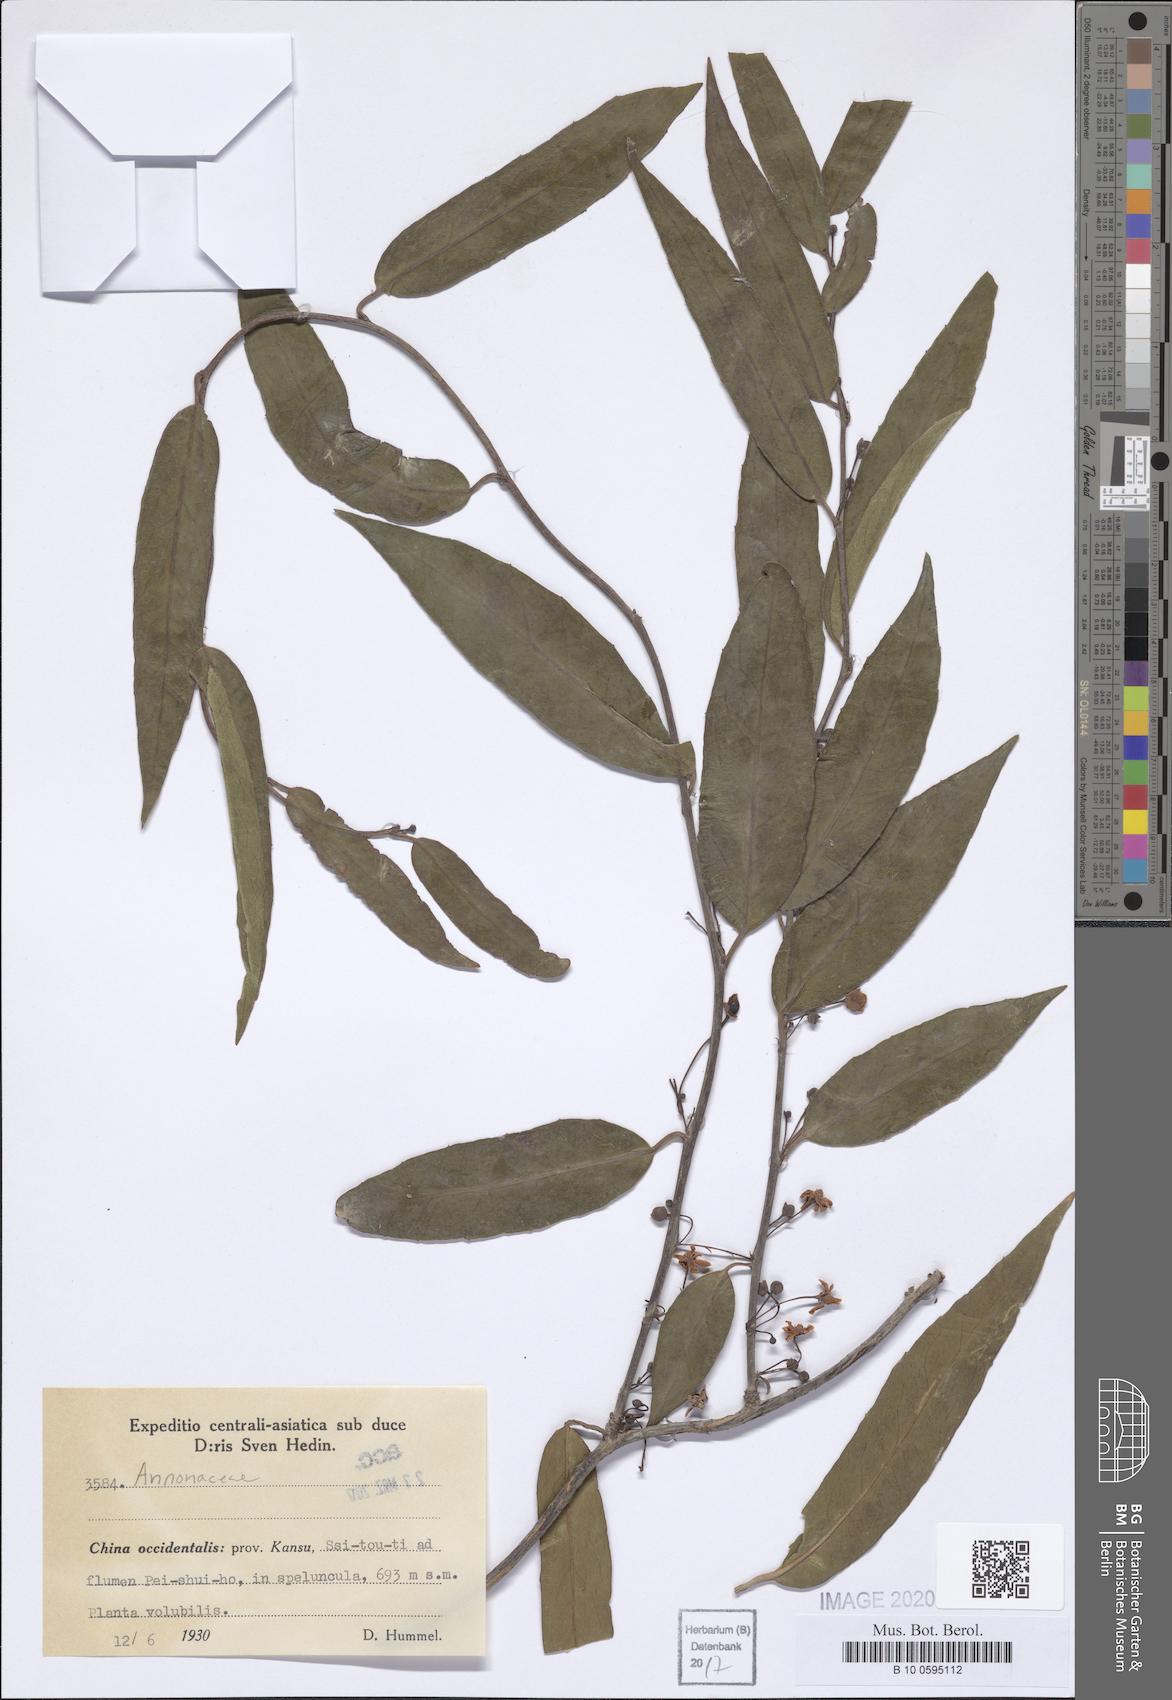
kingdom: Plantae
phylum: Tracheophyta
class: Magnoliopsida
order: Magnoliales
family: Annonaceae
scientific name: Annonaceae
